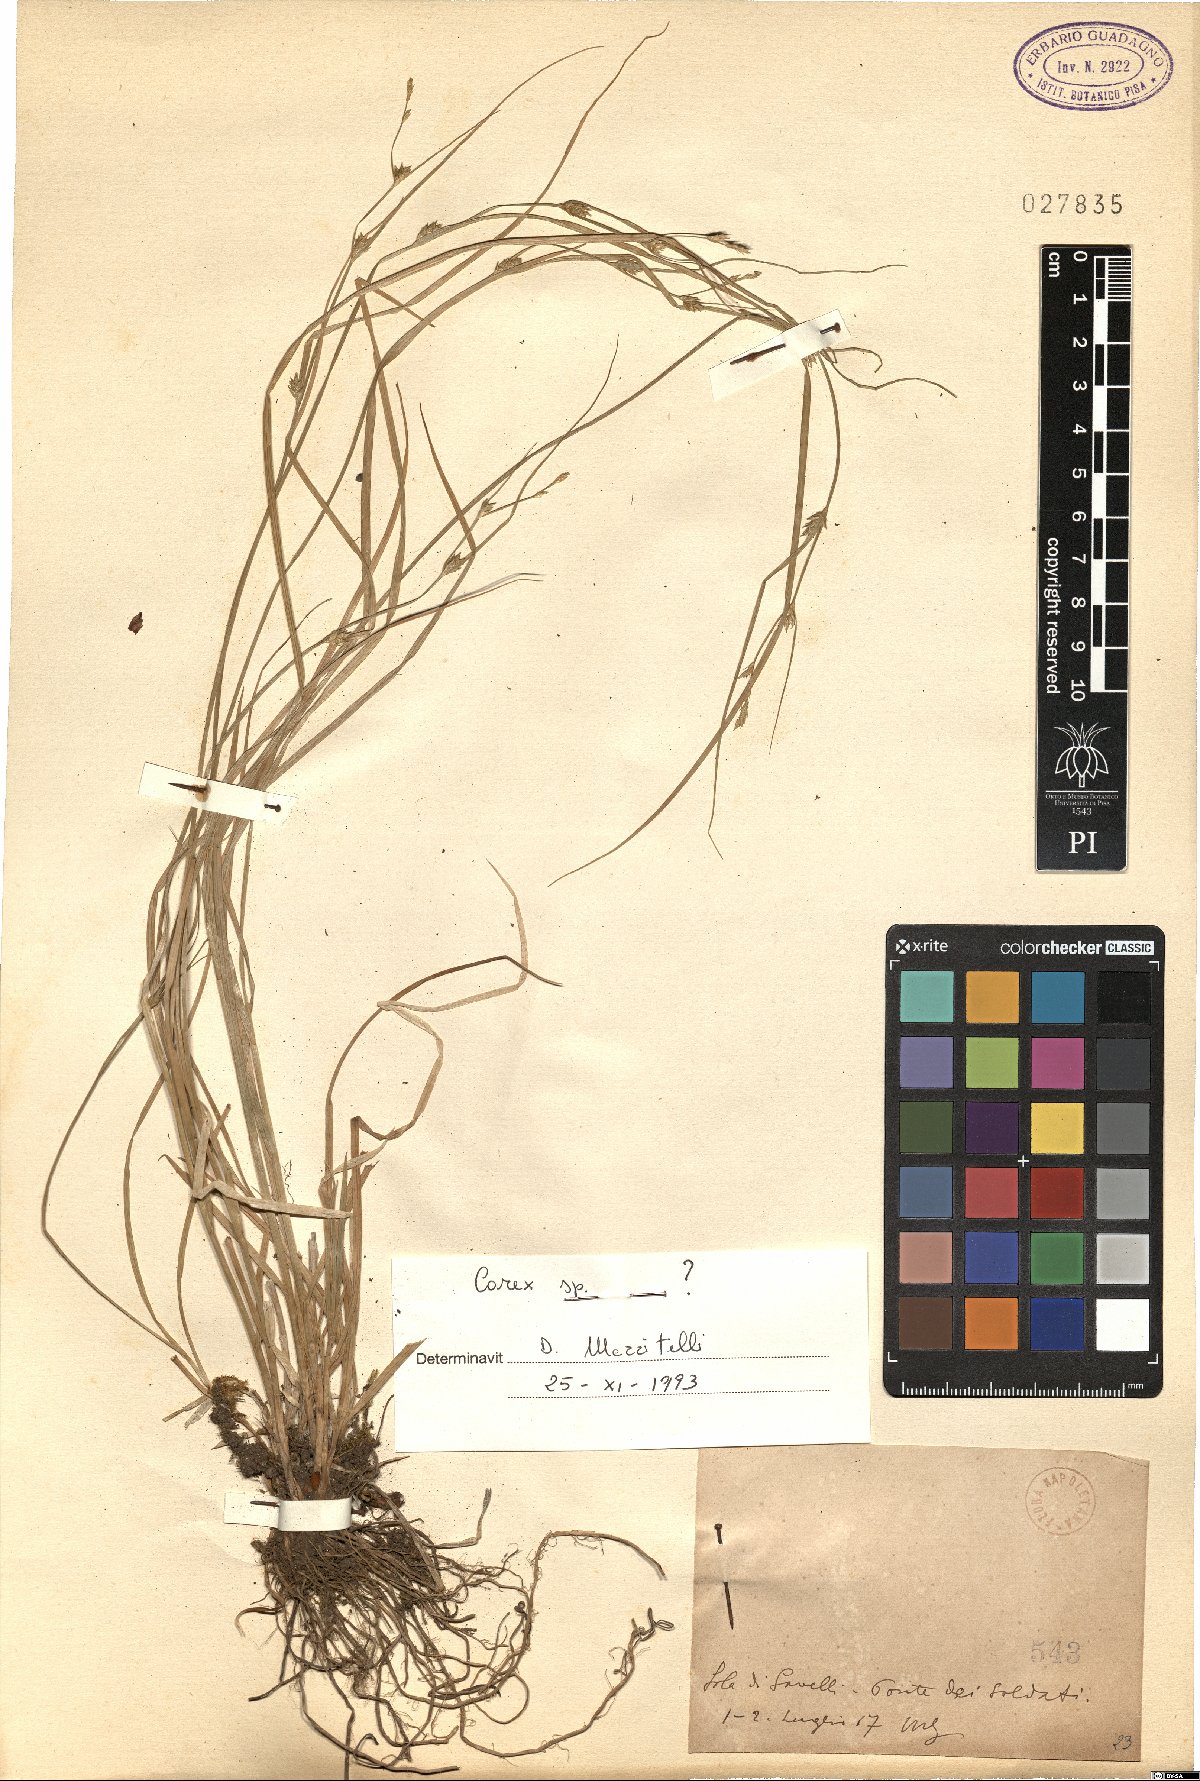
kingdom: Plantae
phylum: Tracheophyta
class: Liliopsida
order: Poales
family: Cyperaceae
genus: Carex
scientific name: Carex
